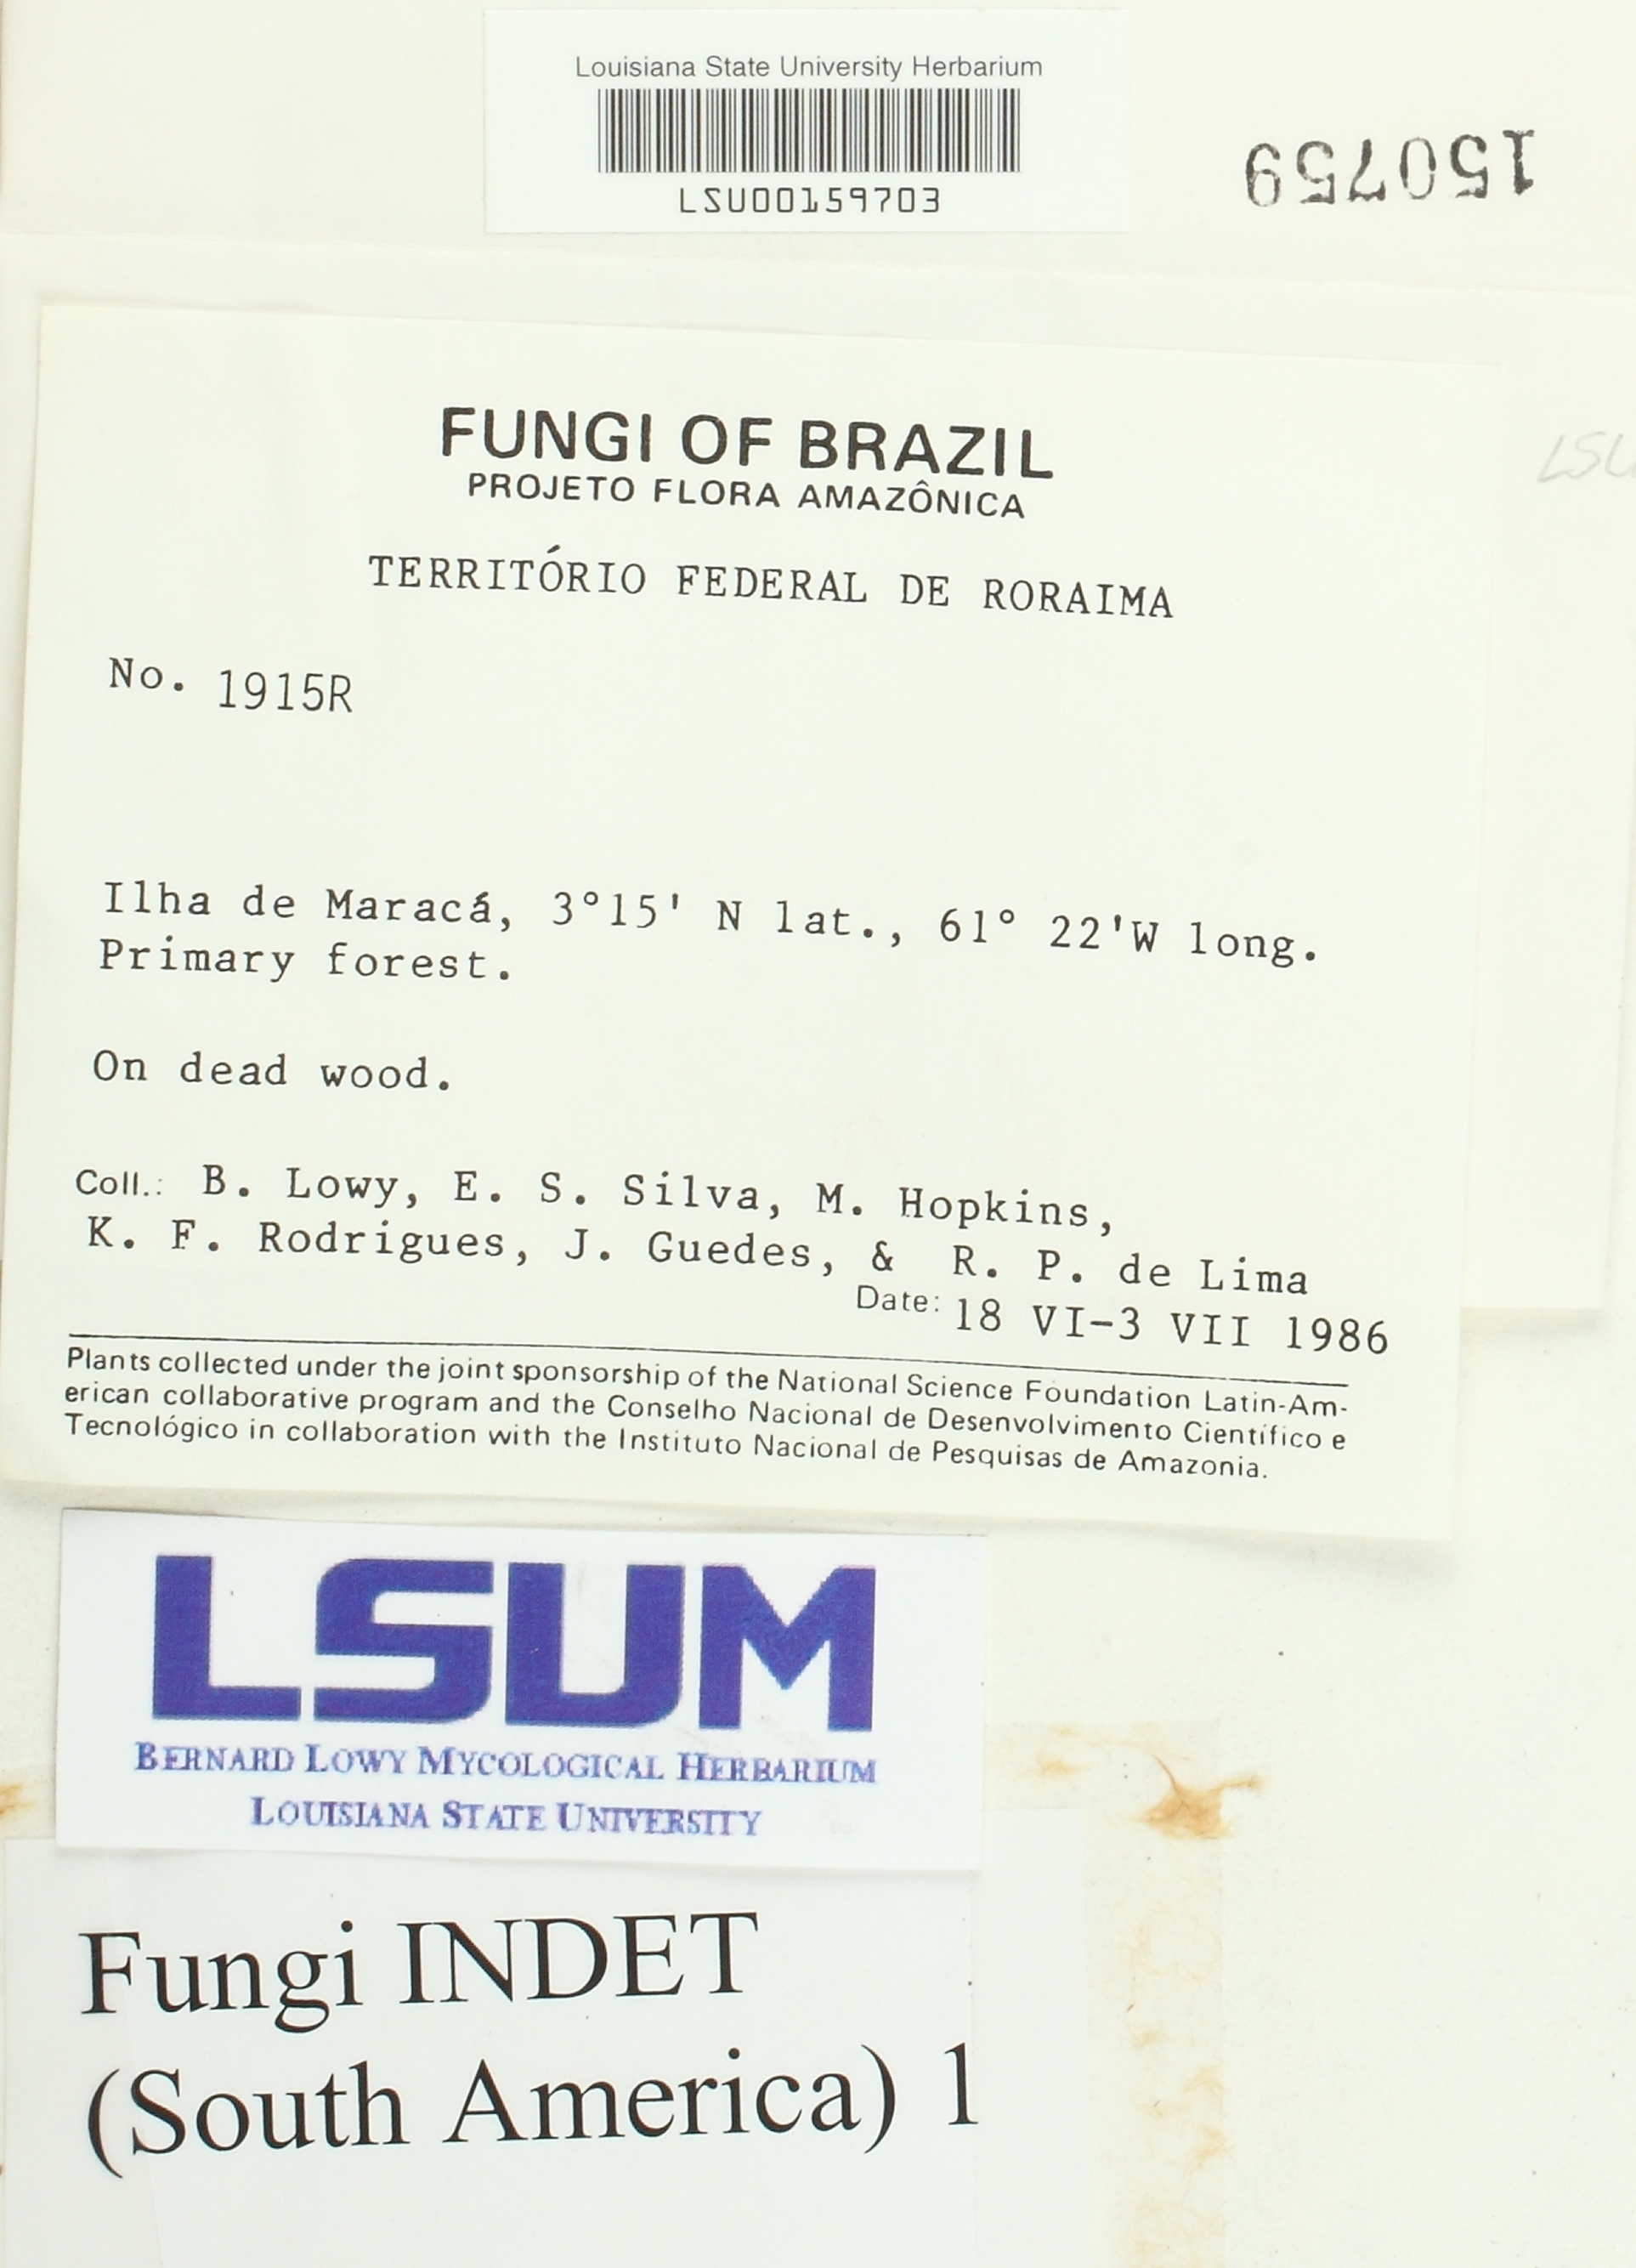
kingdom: Fungi
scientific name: Fungi
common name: Fungi
